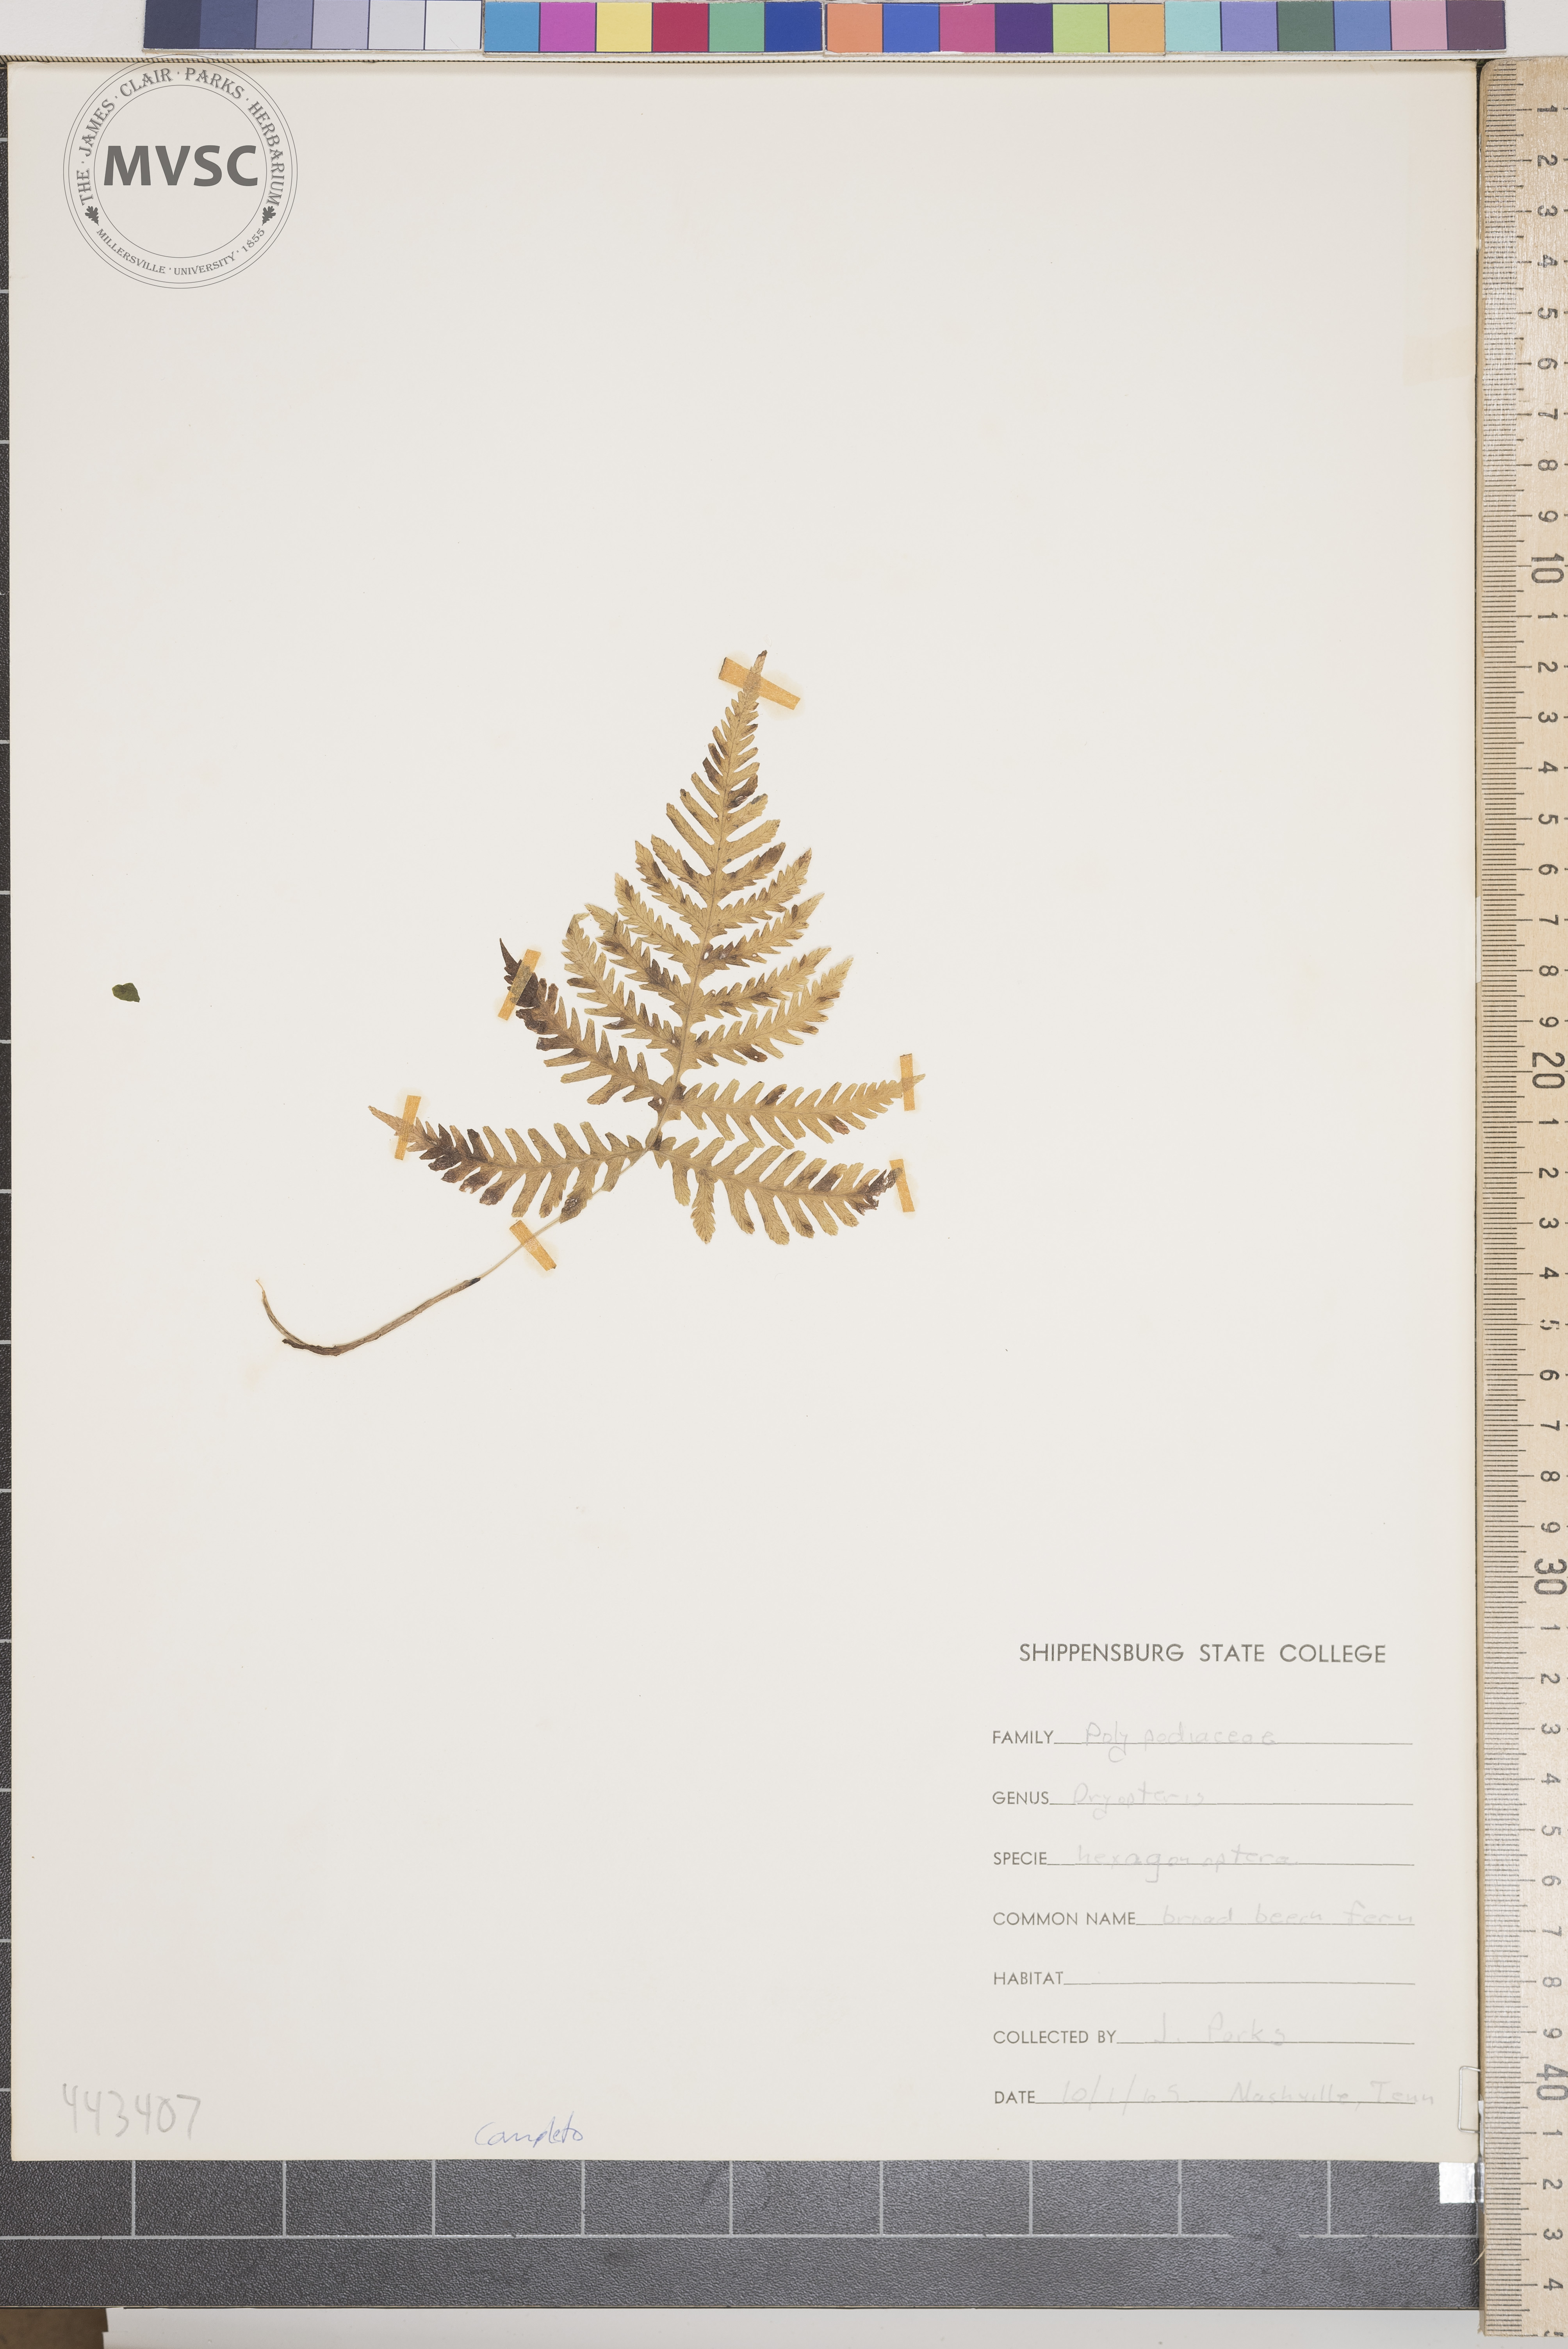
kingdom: Plantae
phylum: Tracheophyta
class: Polypodiopsida
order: Polypodiales
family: Thelypteridaceae
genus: Phegopteris
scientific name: Phegopteris hexagonoptera
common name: Broad Beech Fern
